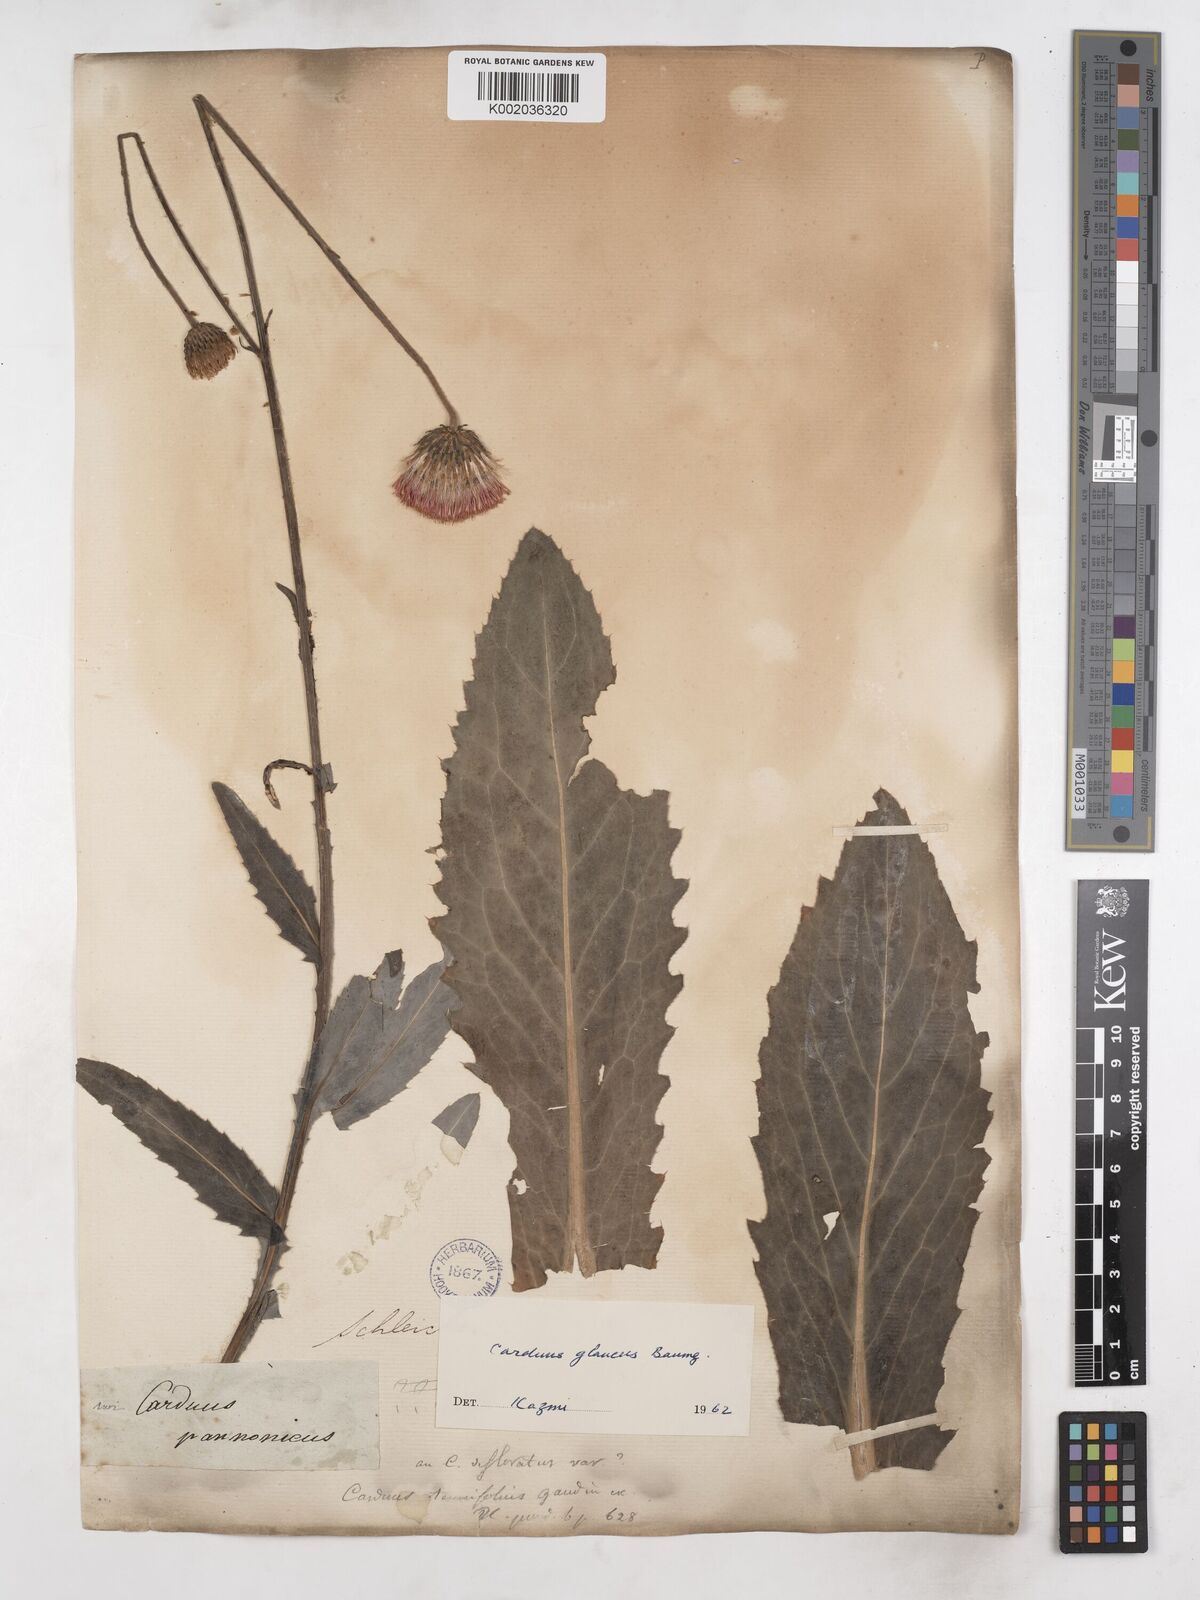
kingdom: Plantae
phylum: Tracheophyta
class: Magnoliopsida
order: Asterales
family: Asteraceae
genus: Carduus
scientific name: Carduus defloratus
